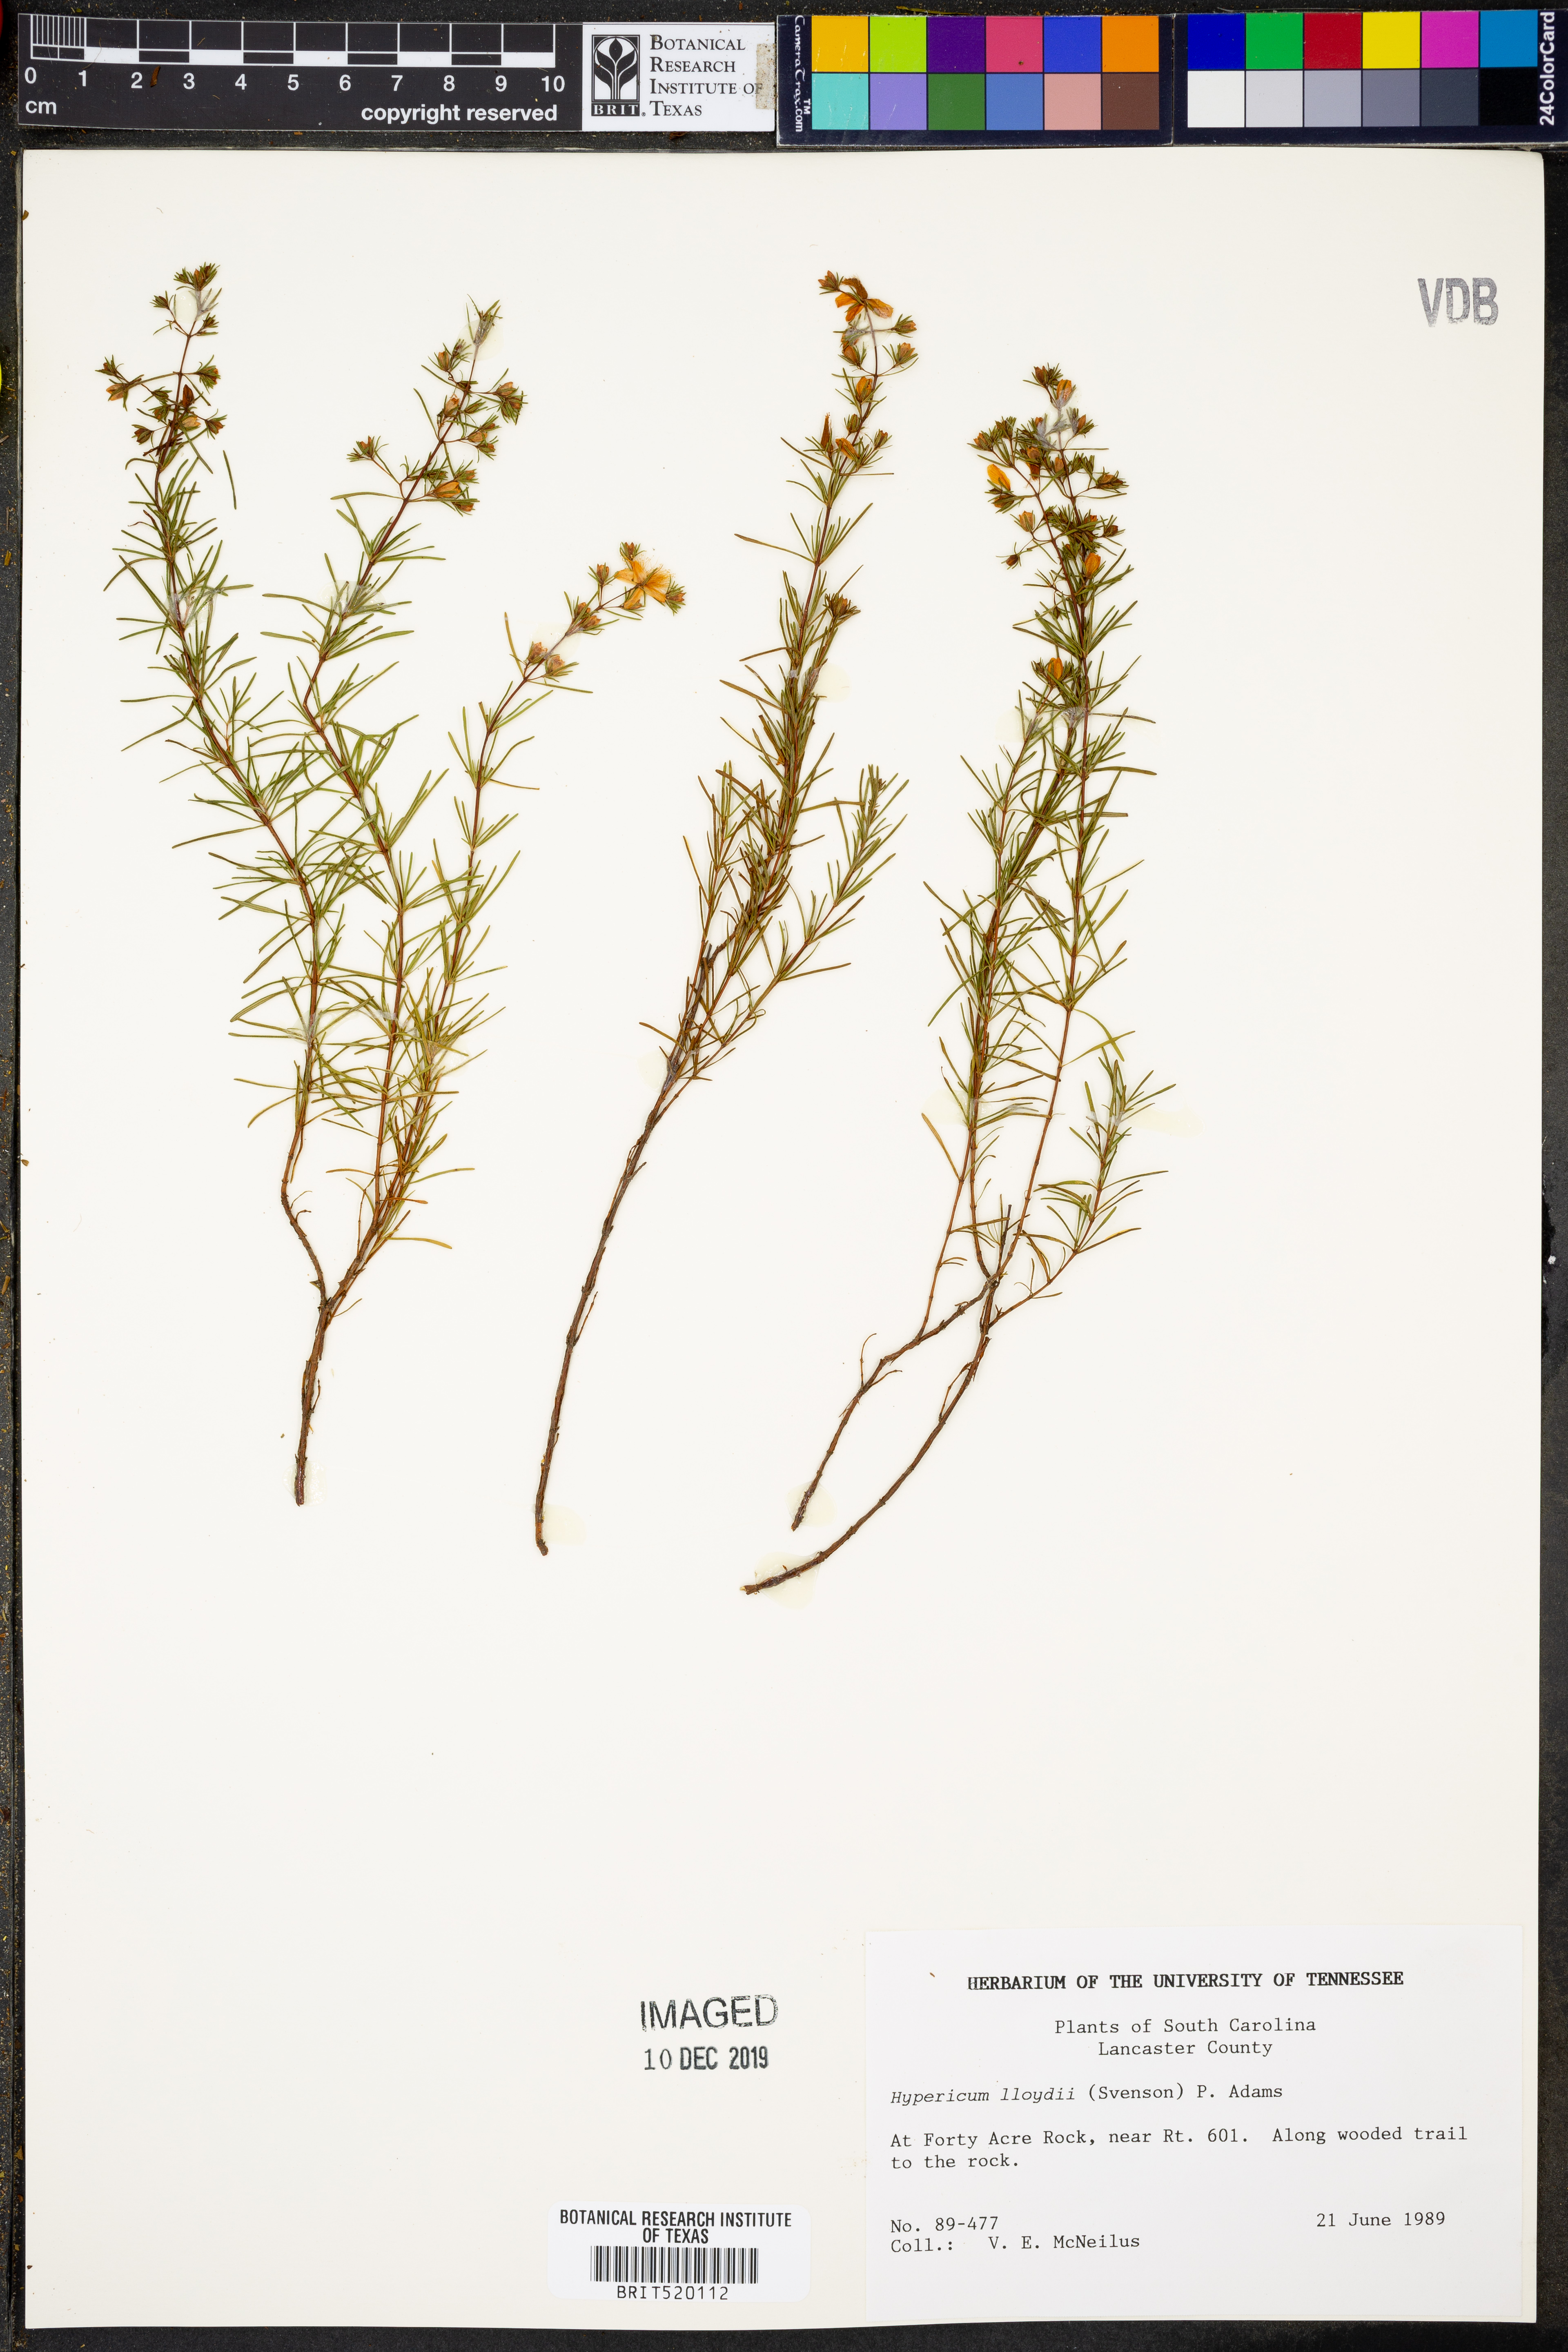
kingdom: Plantae
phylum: Tracheophyta
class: Magnoliopsida
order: Malpighiales
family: Hypericaceae
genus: Hypericum
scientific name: Hypericum lloydii
